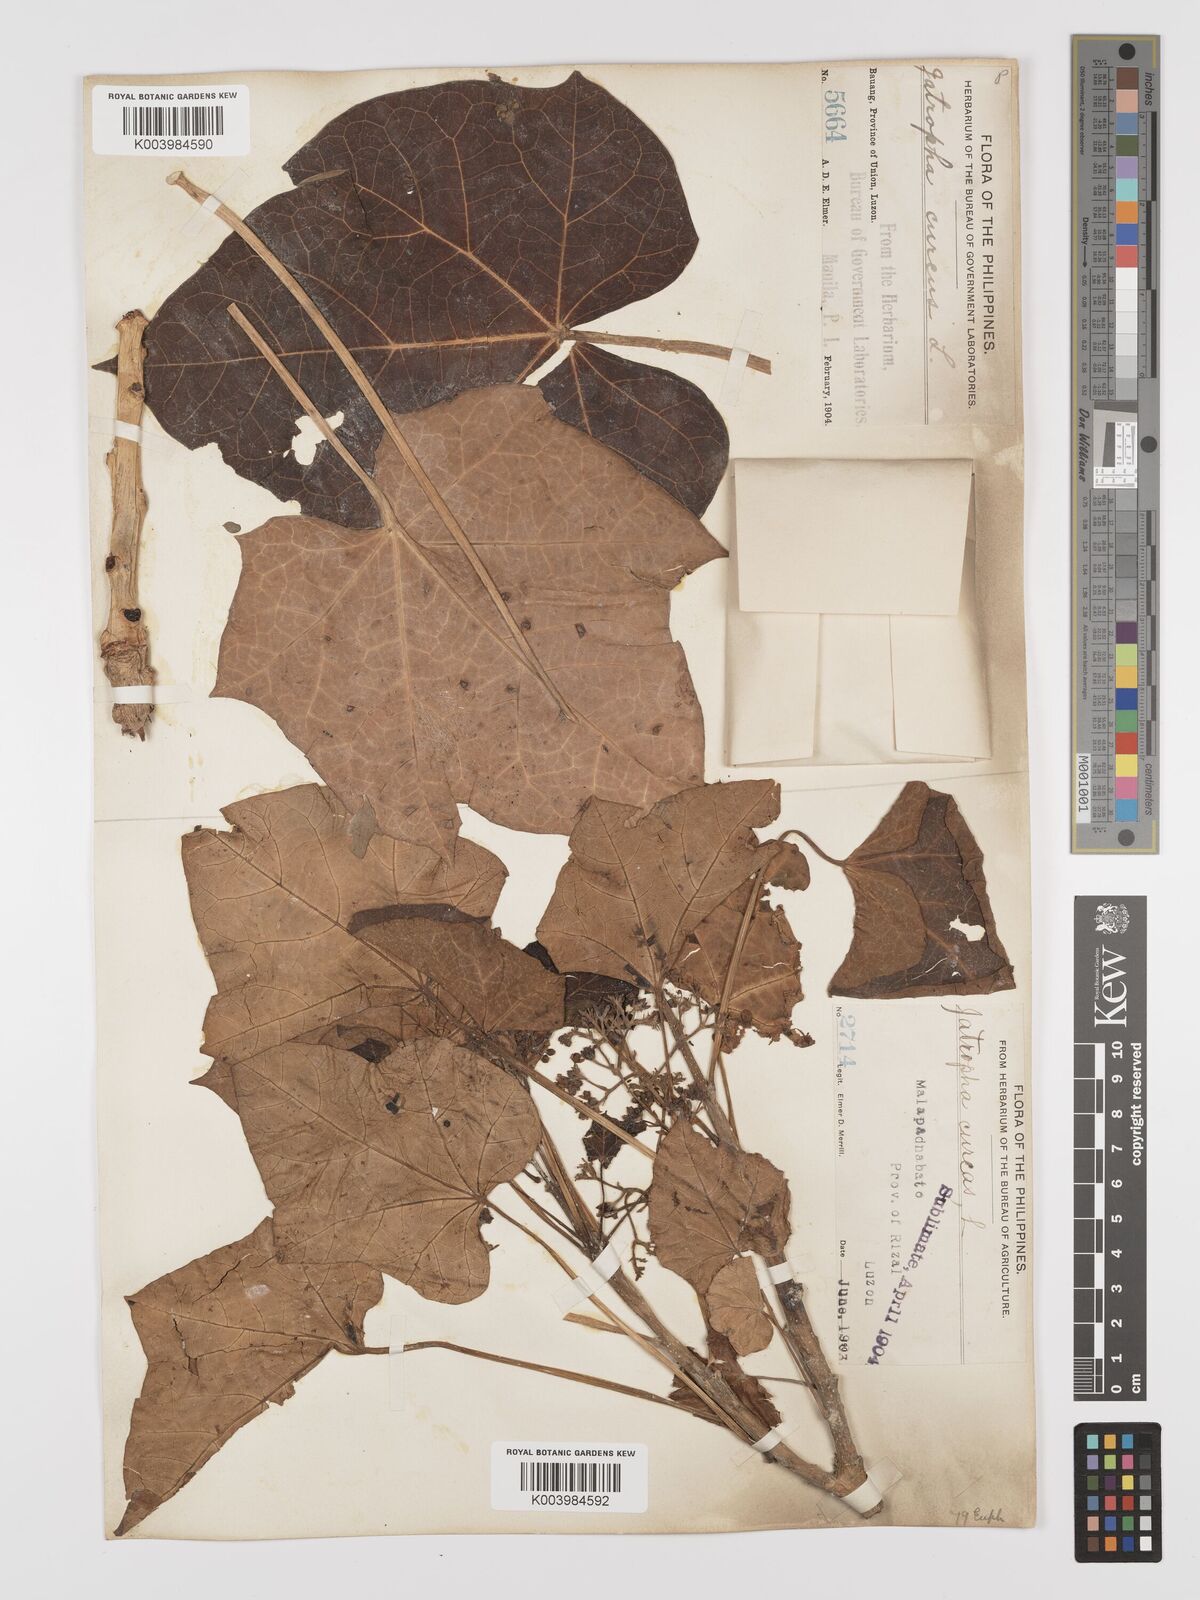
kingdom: Plantae
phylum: Tracheophyta
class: Magnoliopsida
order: Malpighiales
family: Euphorbiaceae
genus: Jatropha
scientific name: Jatropha curcas
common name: Barbados nut
